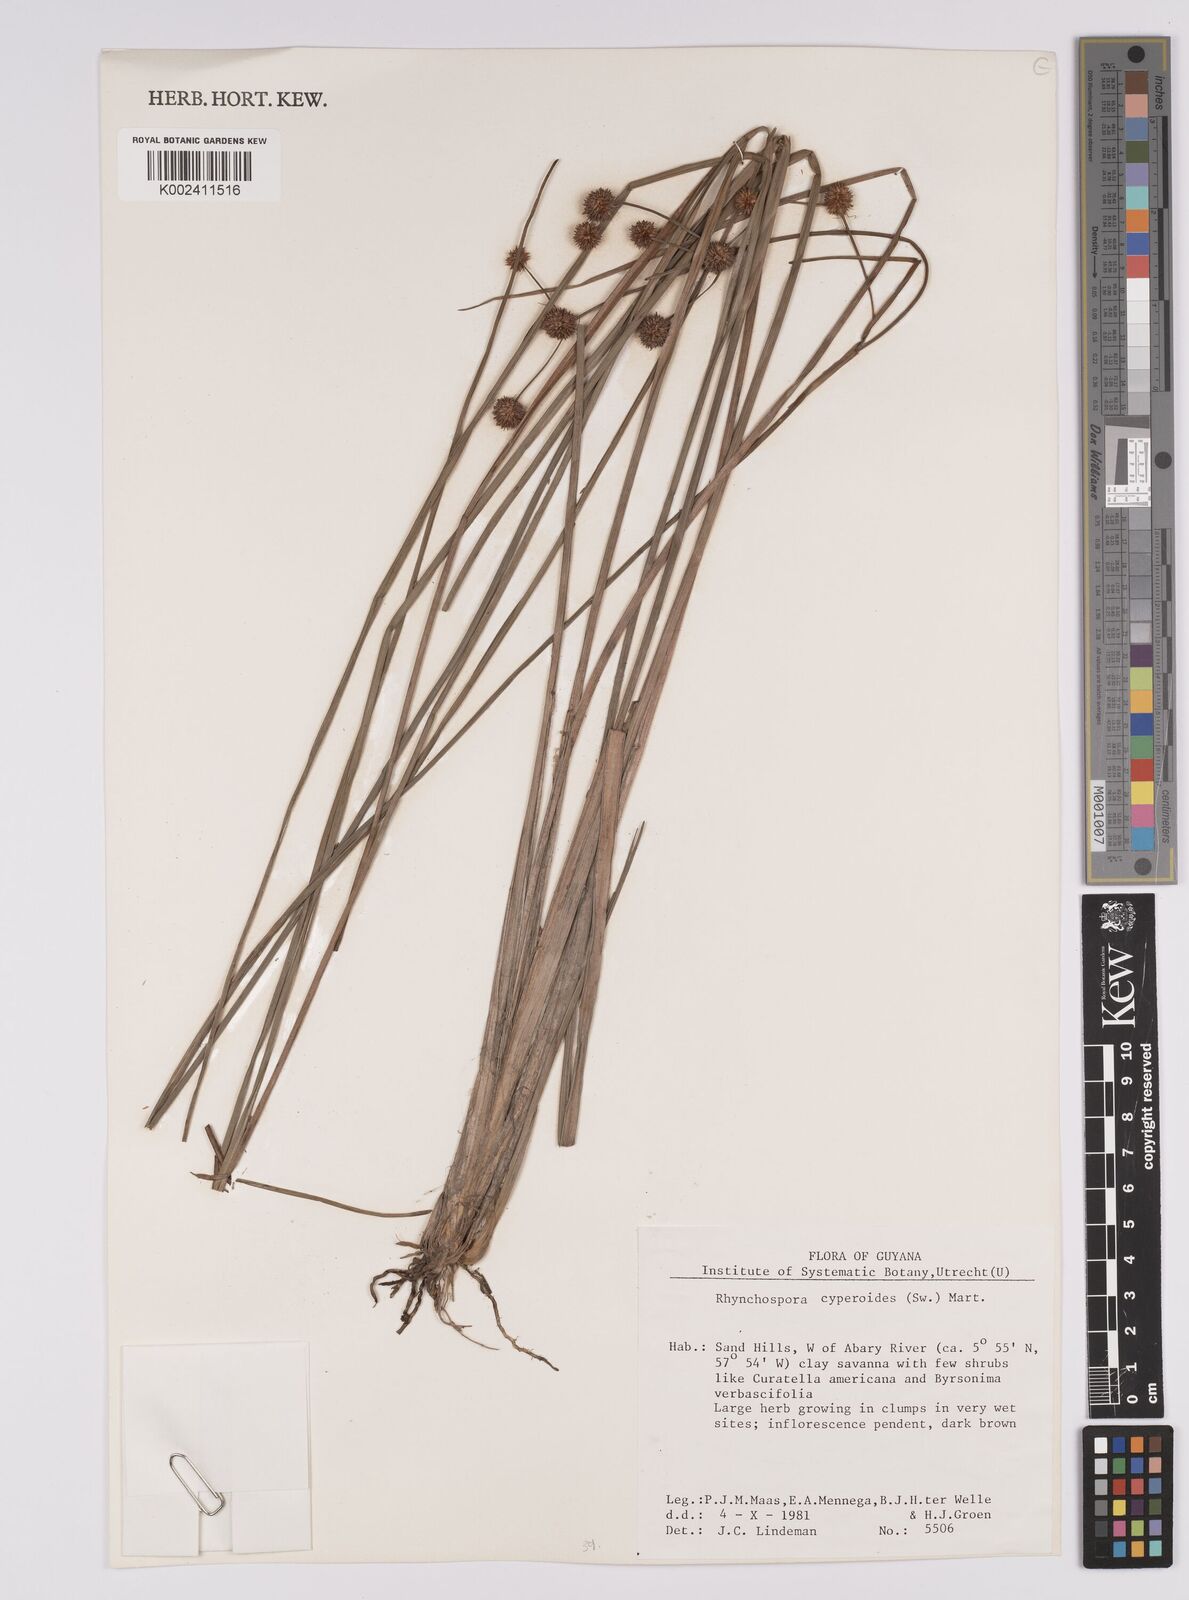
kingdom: Plantae
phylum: Tracheophyta
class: Liliopsida
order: Poales
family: Cyperaceae
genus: Rhynchospora
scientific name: Rhynchospora holoschoenoides
